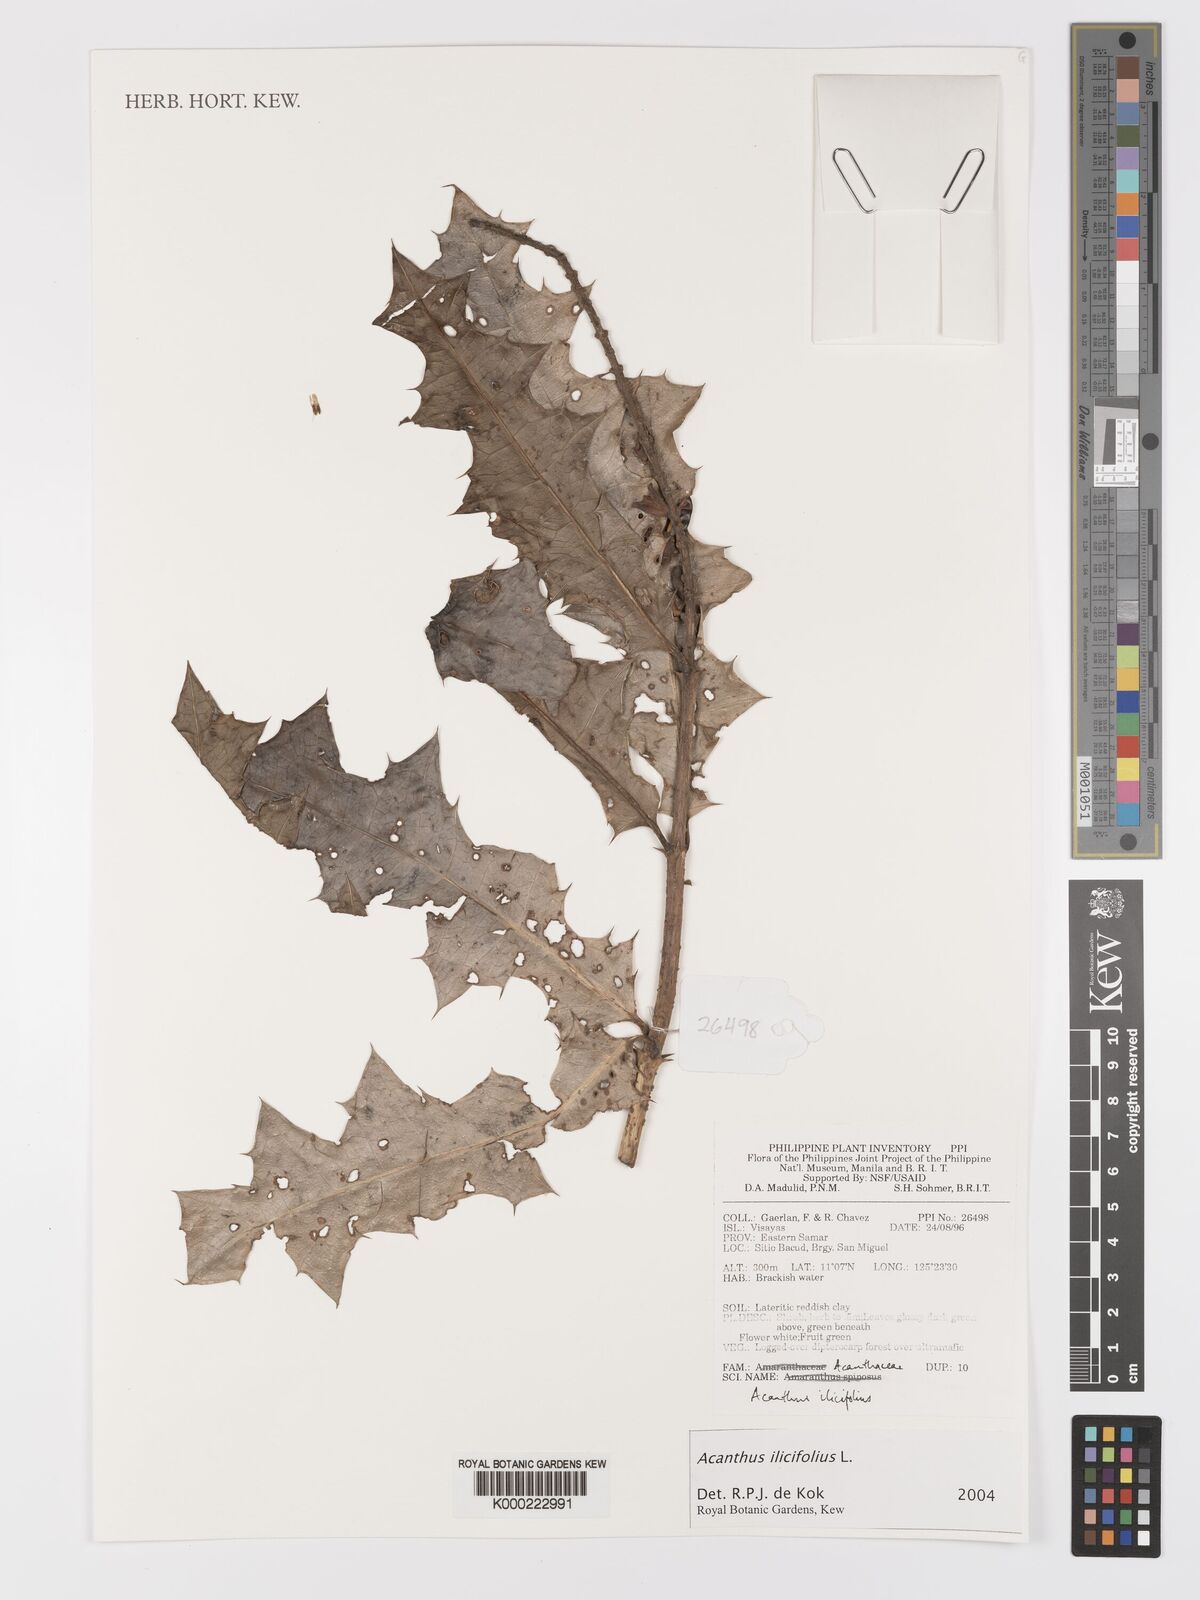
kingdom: Plantae
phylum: Tracheophyta
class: Magnoliopsida
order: Lamiales
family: Acanthaceae
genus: Acanthus
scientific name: Acanthus ilicifolius
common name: Holy mangrove
